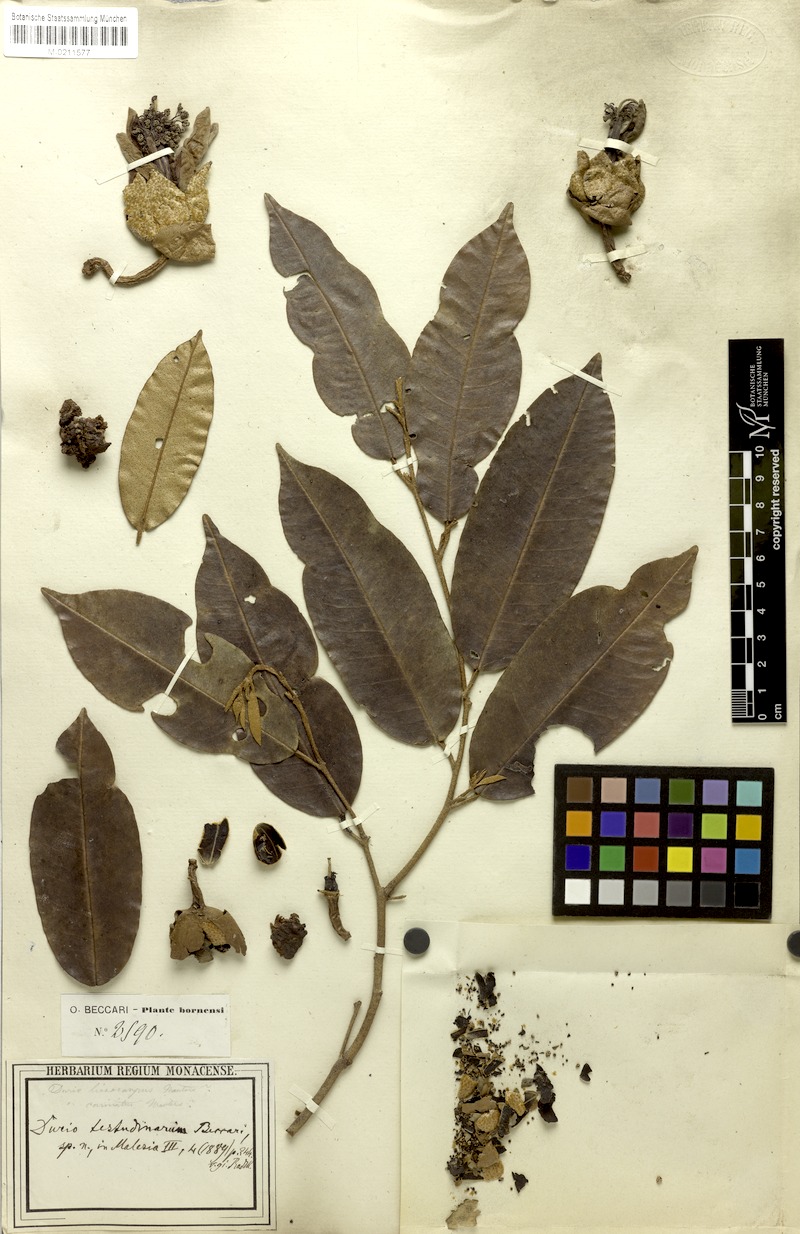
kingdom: Plantae
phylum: Tracheophyta
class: Magnoliopsida
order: Malvales
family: Malvaceae
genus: Durio
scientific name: Durio testudinarius
